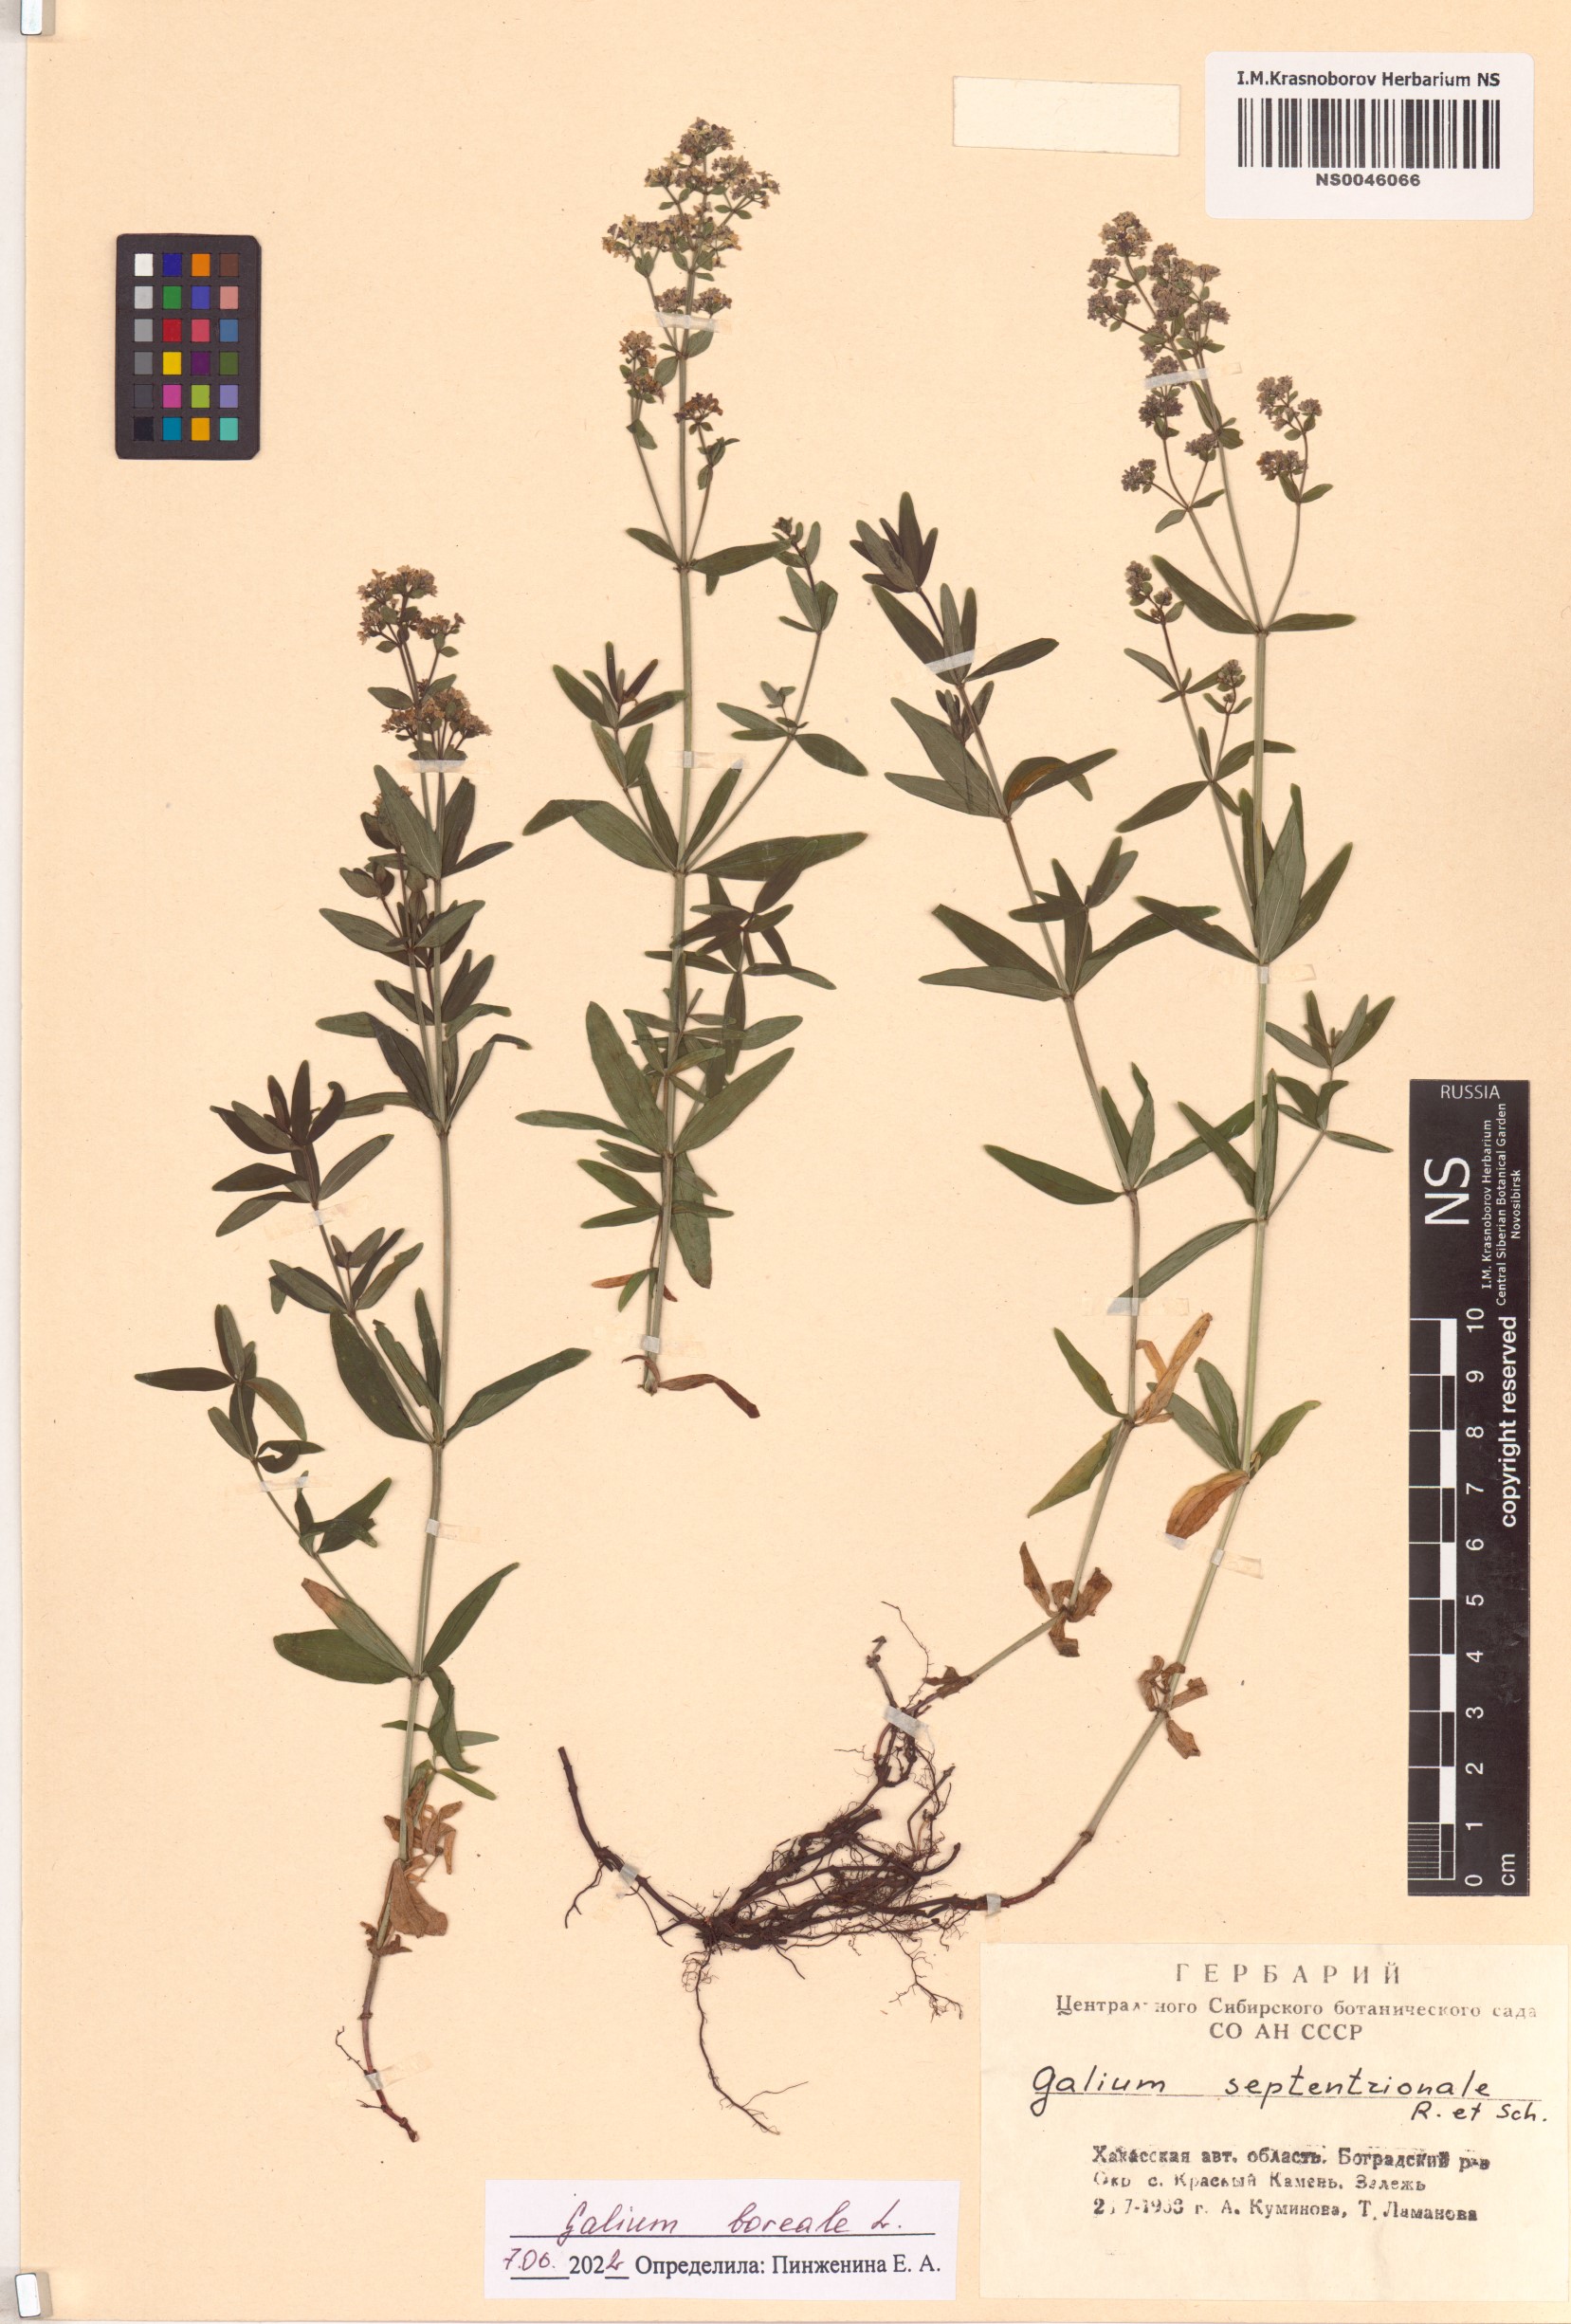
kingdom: Plantae
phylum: Tracheophyta
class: Magnoliopsida
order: Gentianales
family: Rubiaceae
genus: Galium
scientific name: Galium boreale
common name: Northern bedstraw
